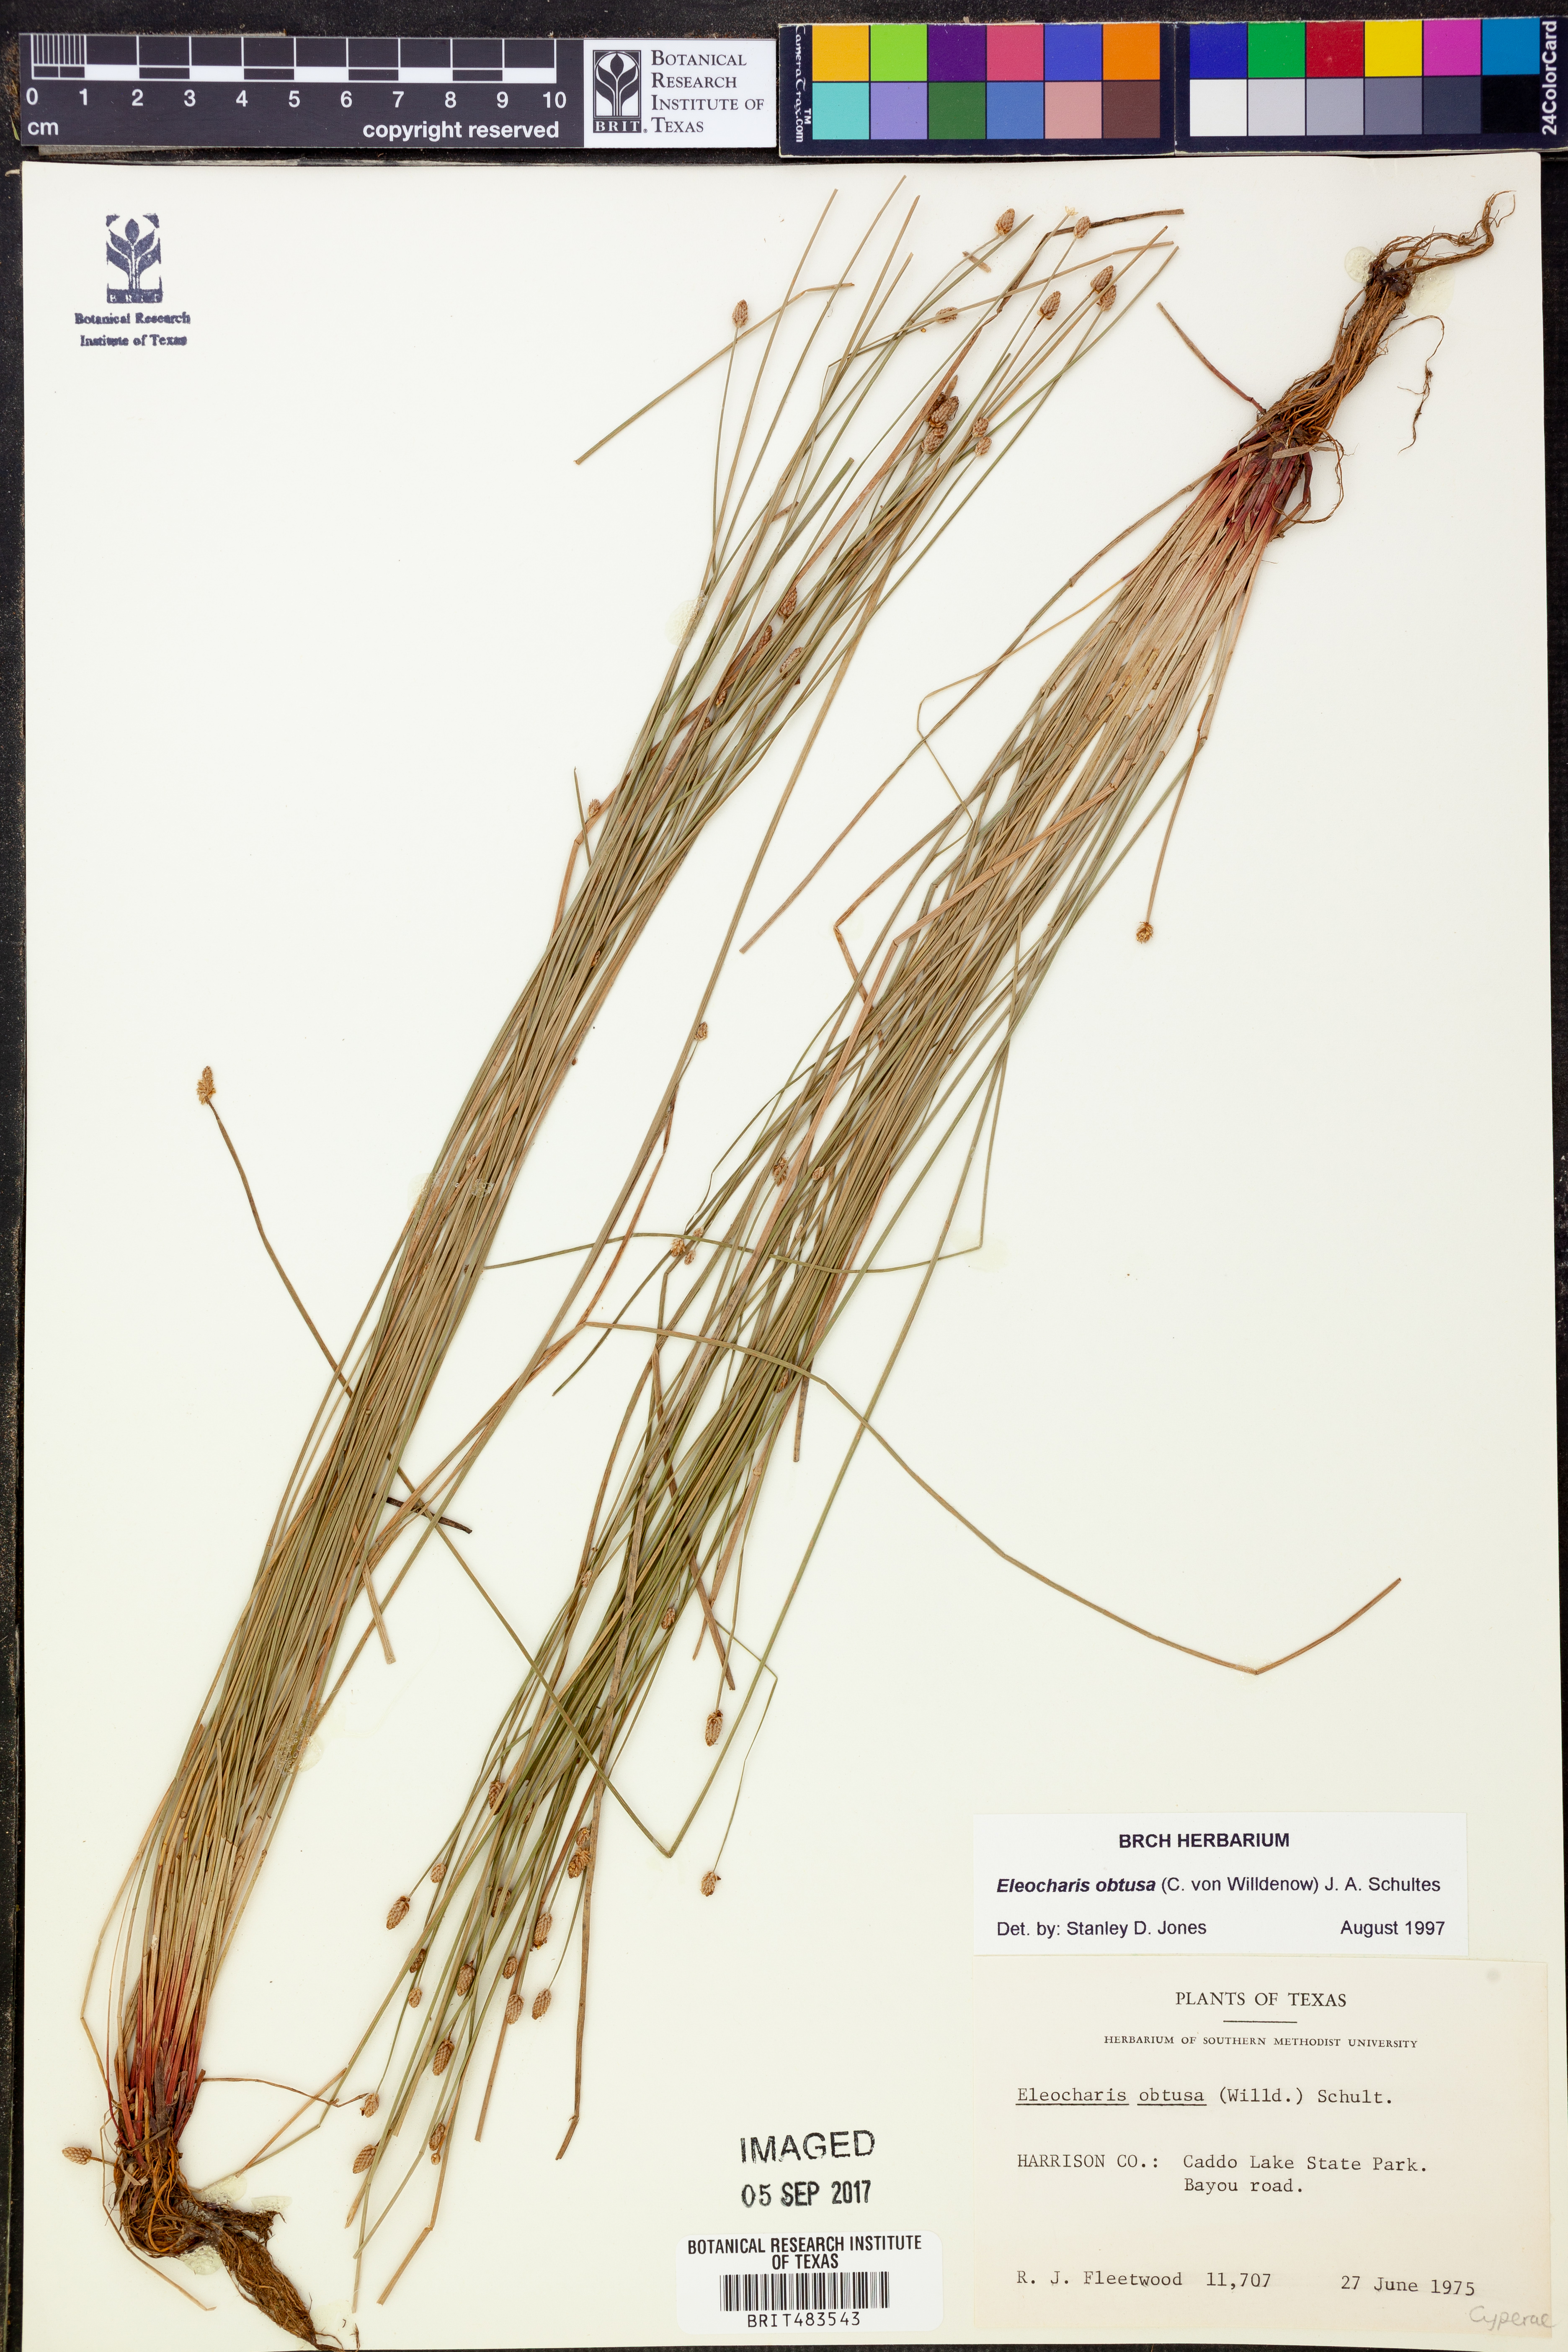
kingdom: Plantae
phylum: Tracheophyta
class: Liliopsida
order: Poales
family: Cyperaceae
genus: Eleocharis
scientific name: Eleocharis obtusa
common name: Blunt spikerush
